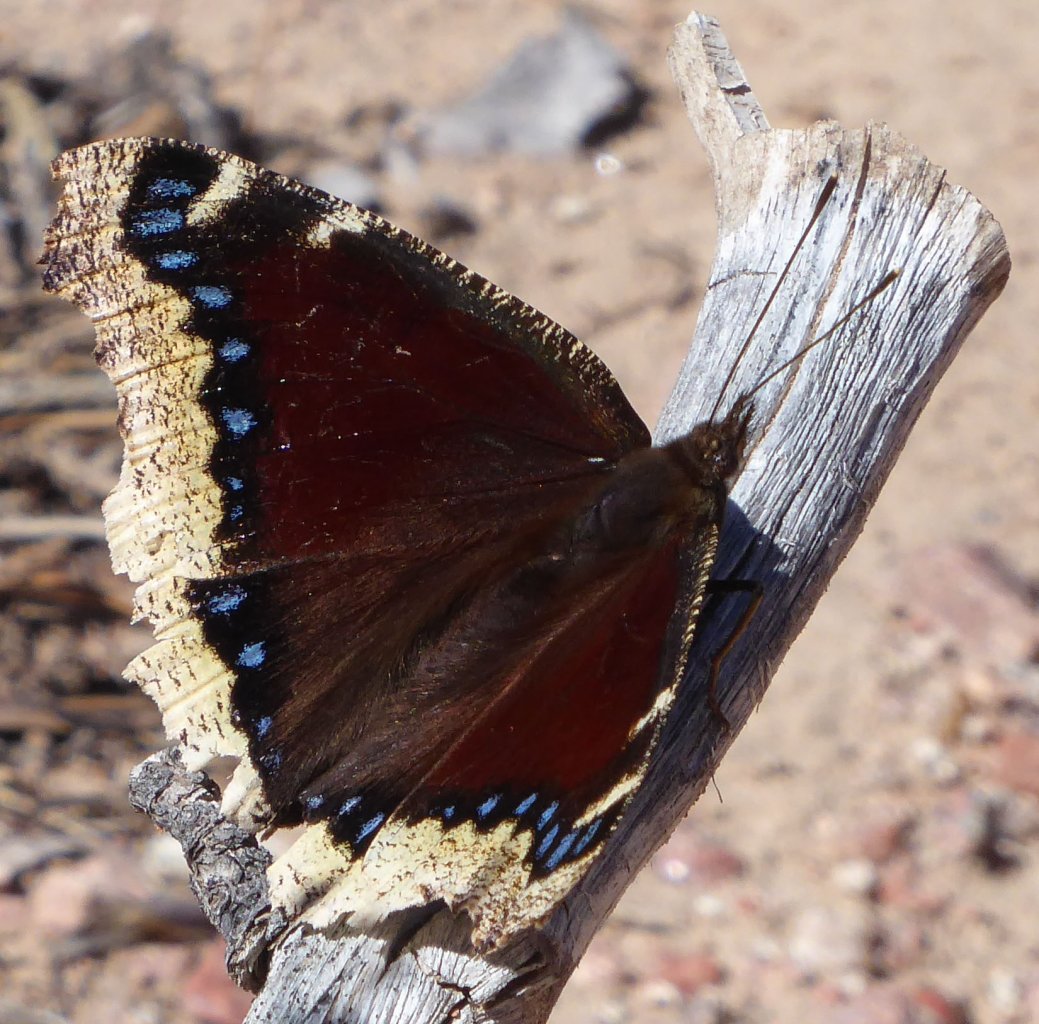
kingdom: Animalia
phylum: Arthropoda
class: Insecta
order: Lepidoptera
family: Nymphalidae
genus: Nymphalis
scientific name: Nymphalis antiopa
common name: Mourning Cloak
